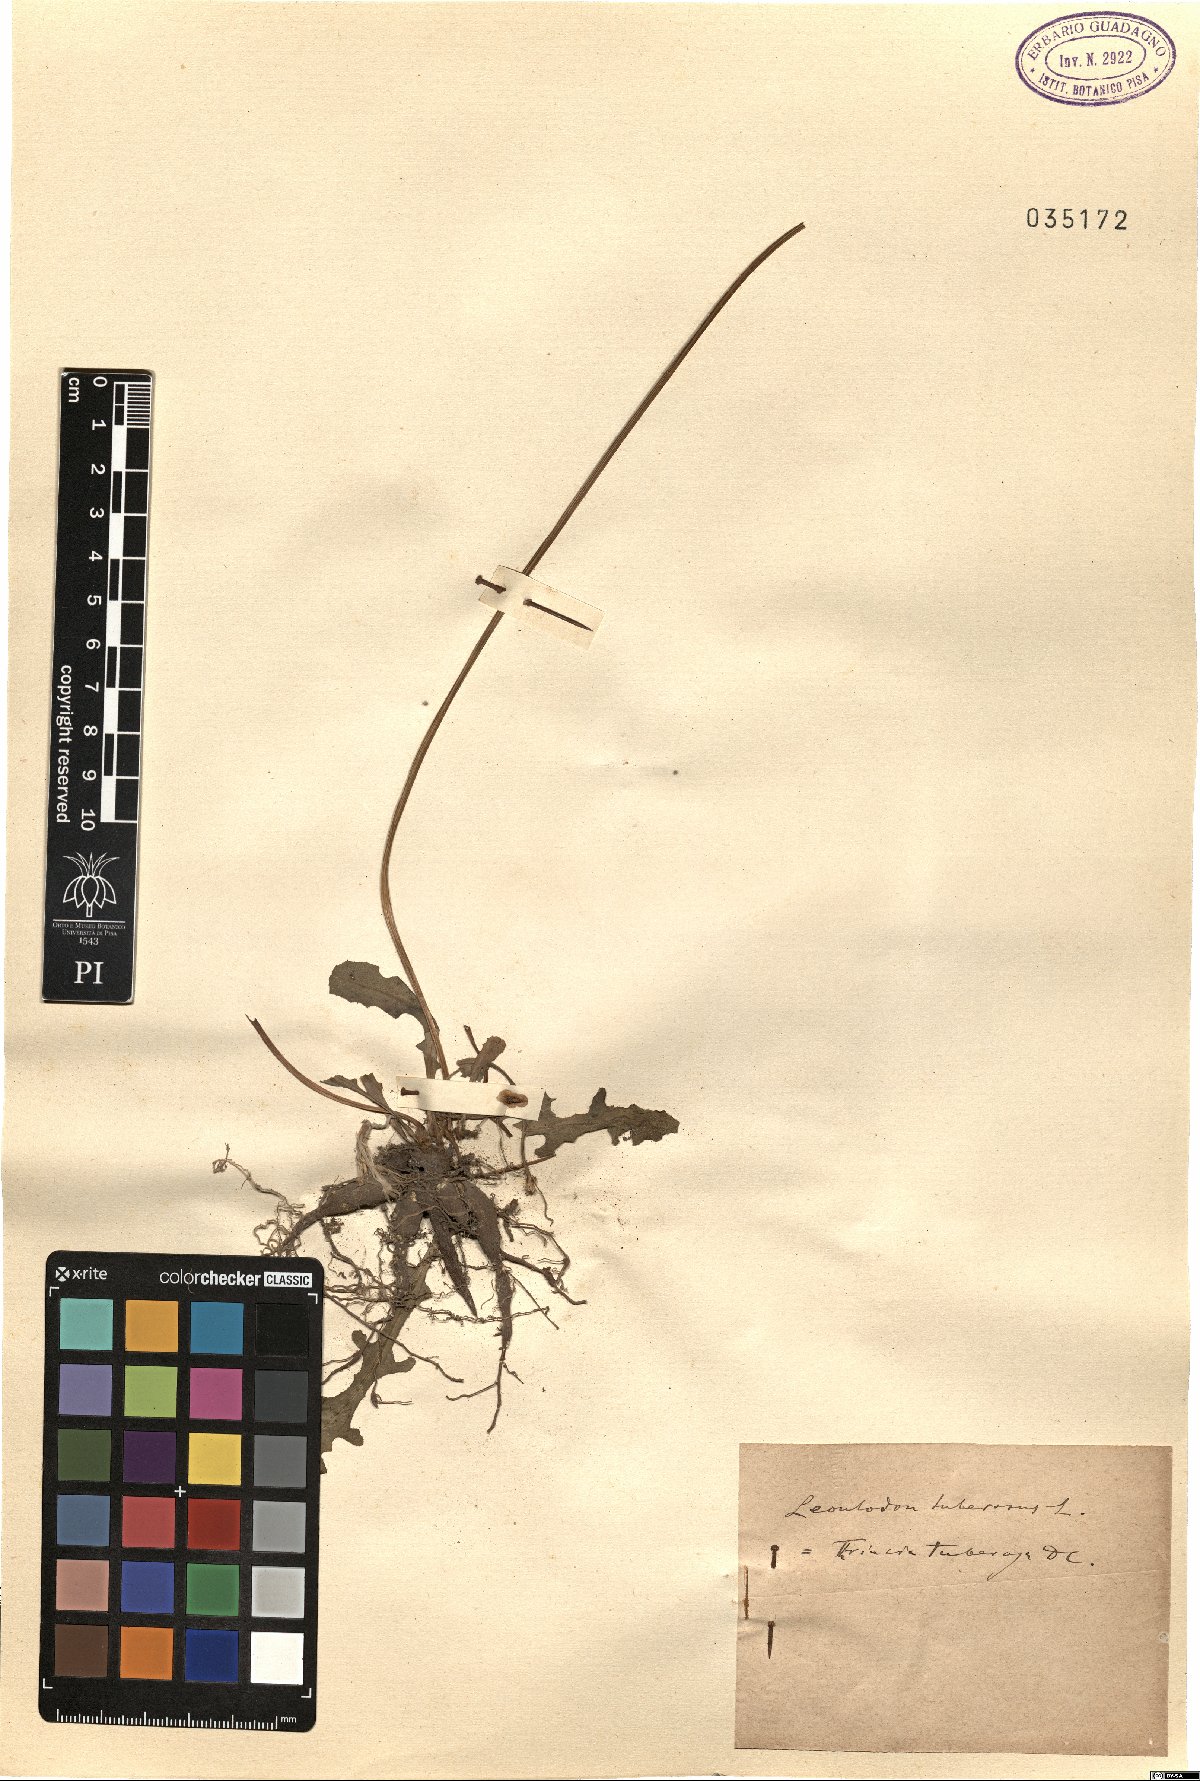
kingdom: Plantae
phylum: Tracheophyta
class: Magnoliopsida
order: Asterales
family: Asteraceae
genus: Thrincia
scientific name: Thrincia tuberosa
